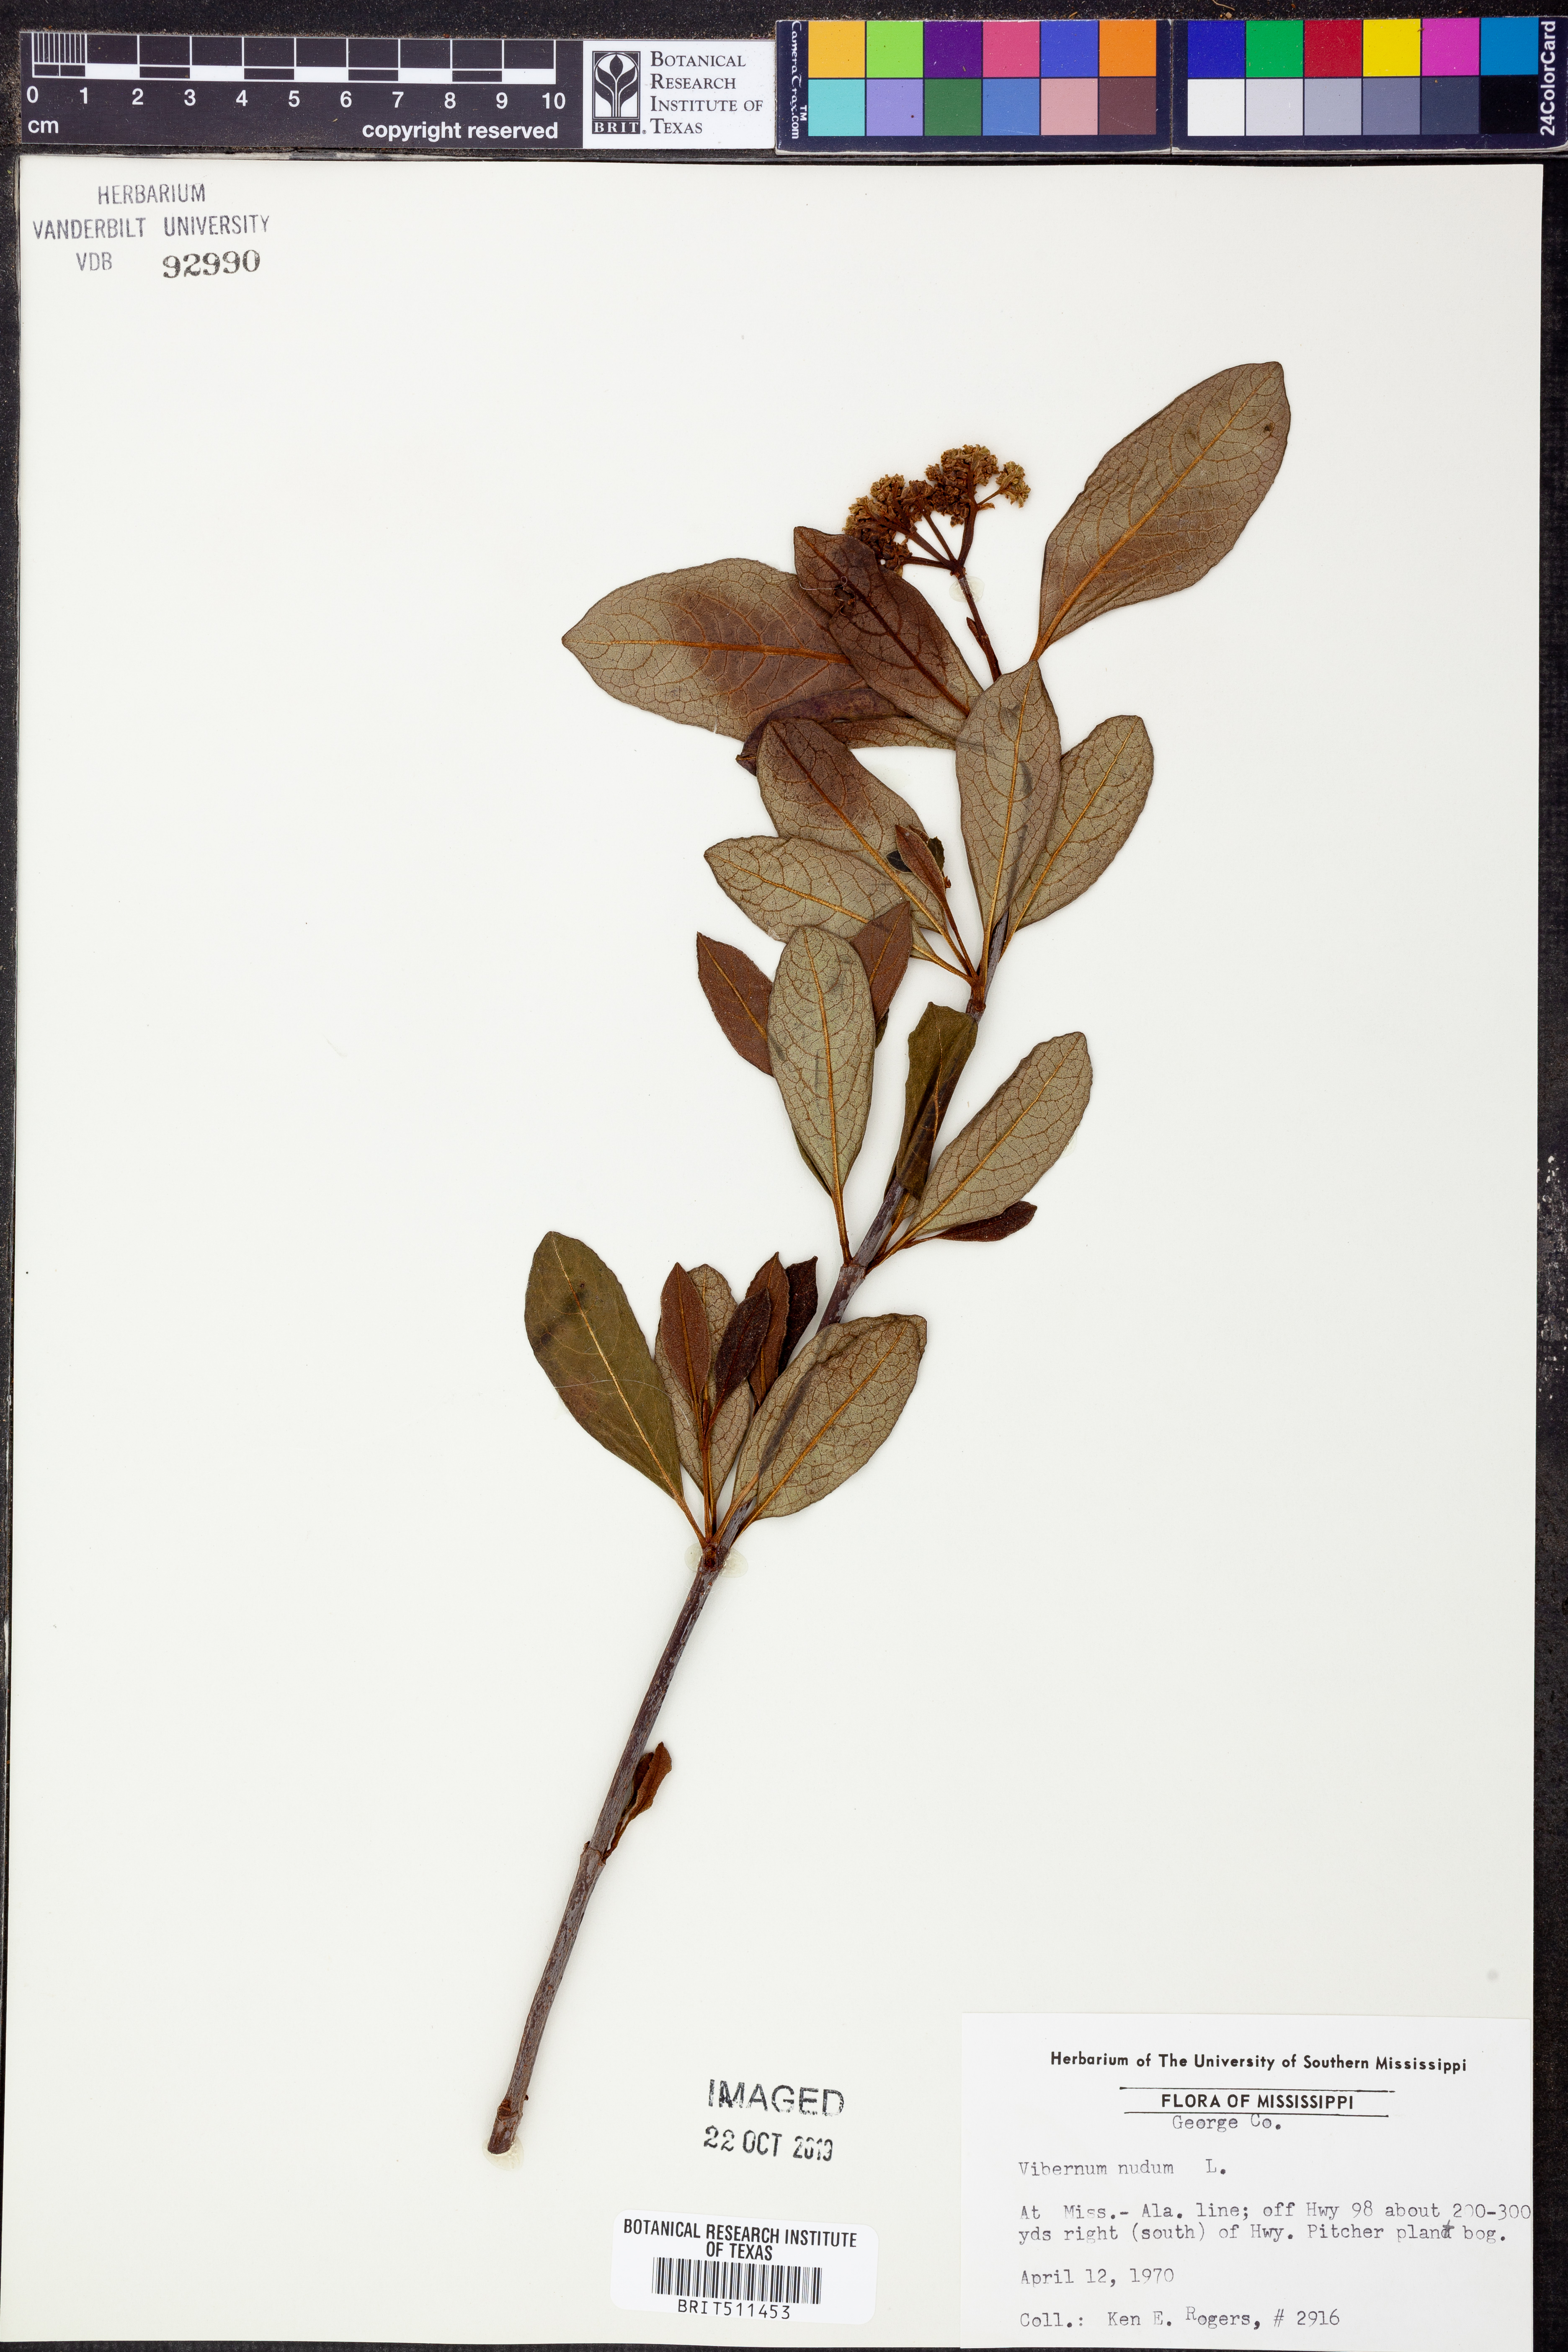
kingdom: Plantae
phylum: Tracheophyta
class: Magnoliopsida
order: Dipsacales
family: Viburnaceae
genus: Viburnum
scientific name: Viburnum nudum
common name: Possum haw
